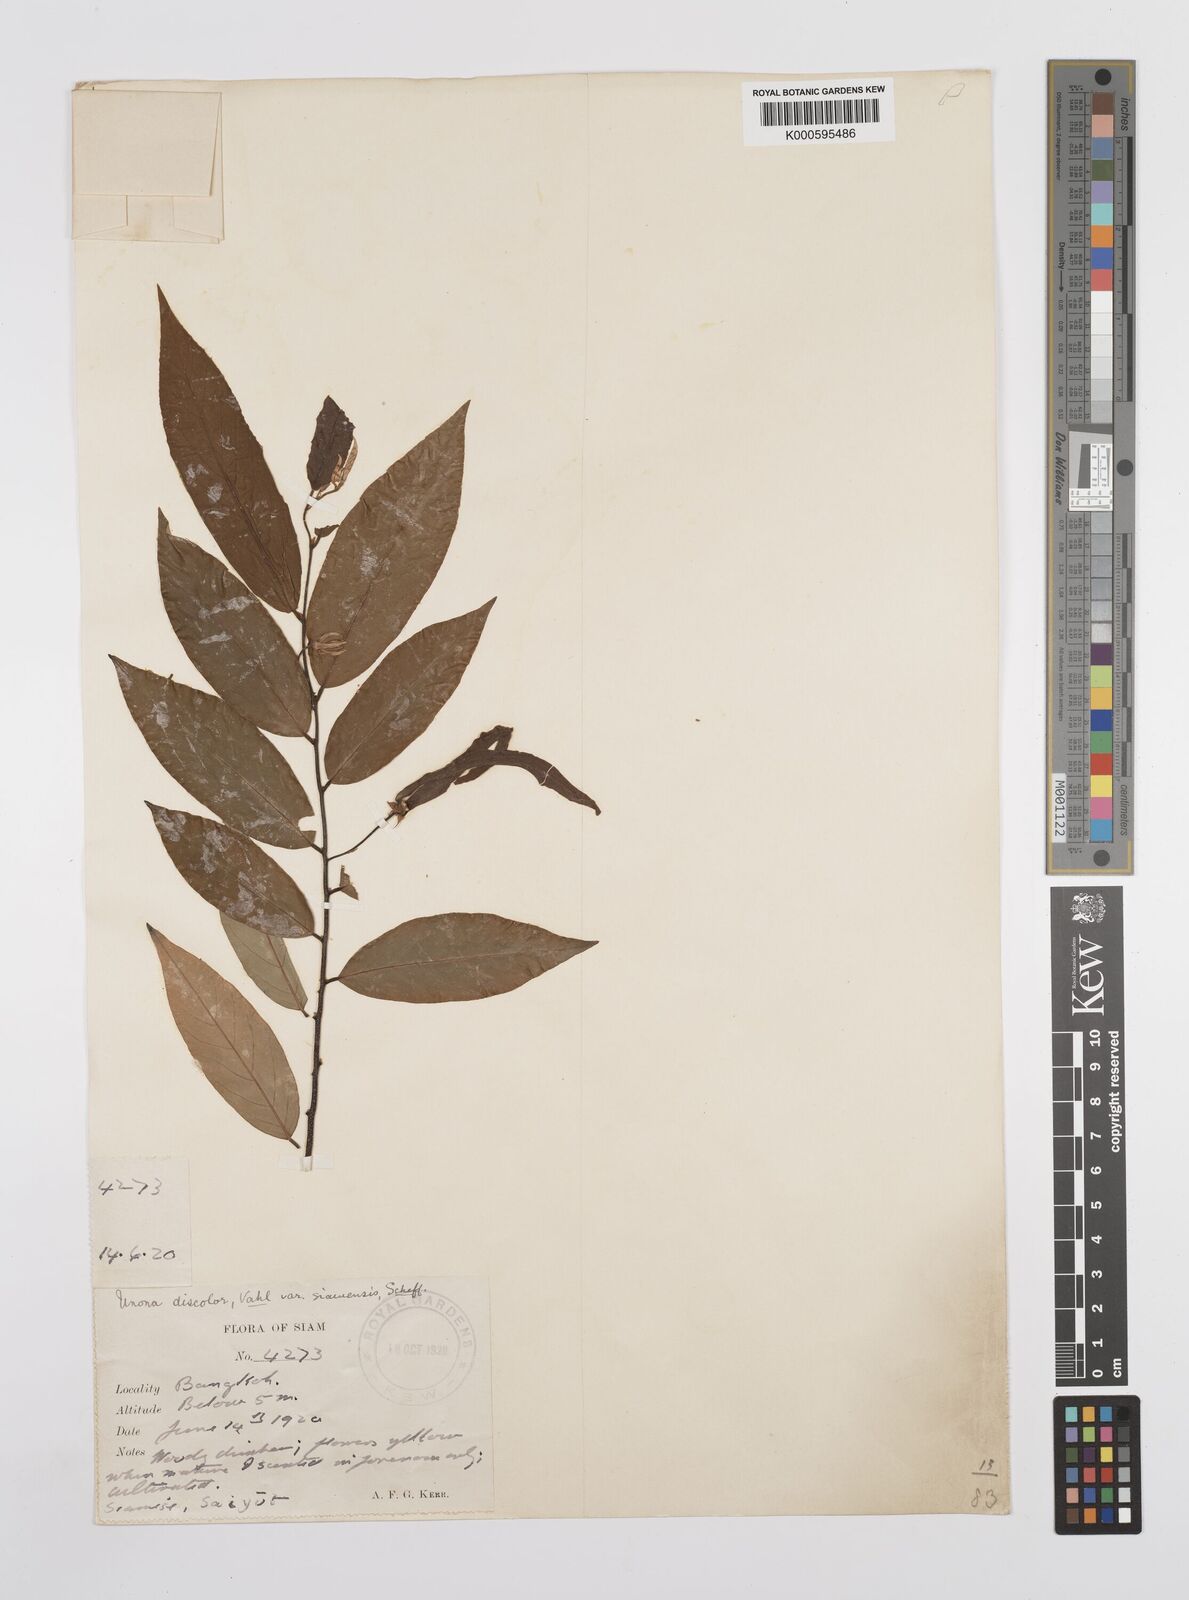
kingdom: Plantae
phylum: Tracheophyta
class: Magnoliopsida
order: Magnoliales
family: Annonaceae
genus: Desmos
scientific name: Desmos chinensis
